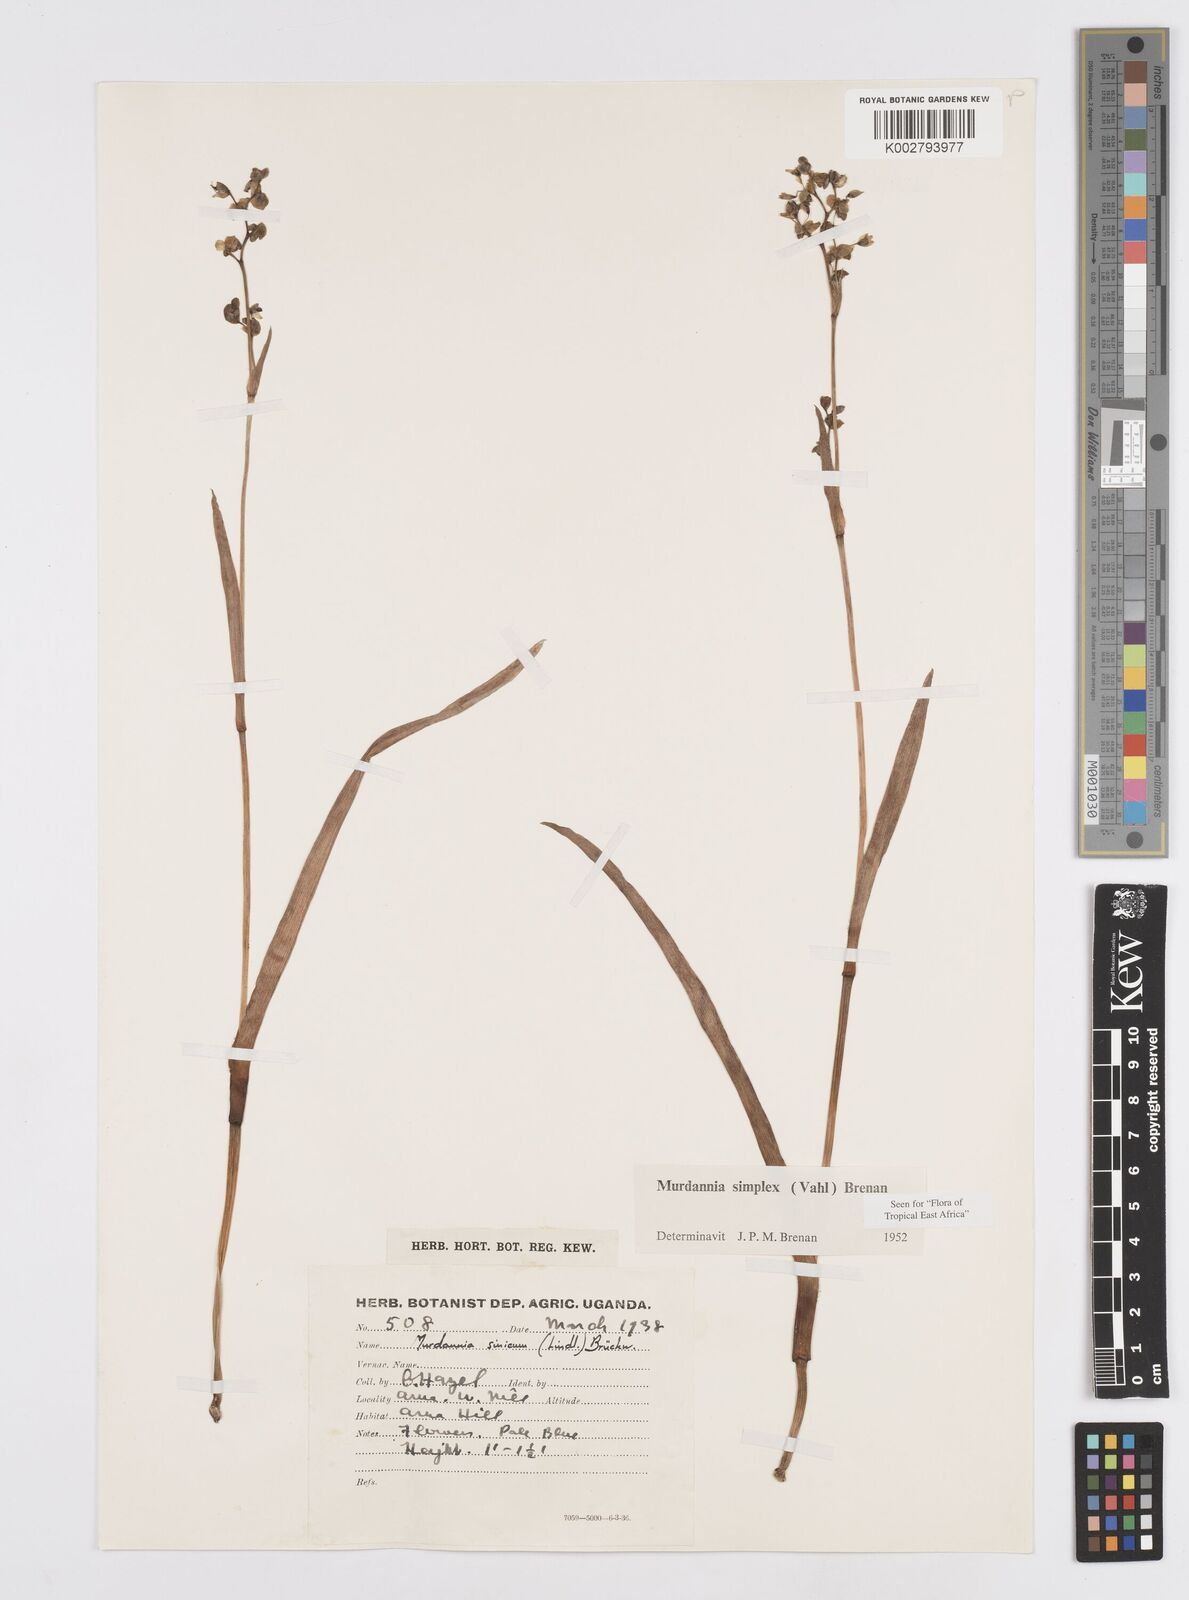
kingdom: Plantae
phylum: Tracheophyta
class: Liliopsida
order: Commelinales
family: Commelinaceae
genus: Murdannia
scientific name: Murdannia simplex
